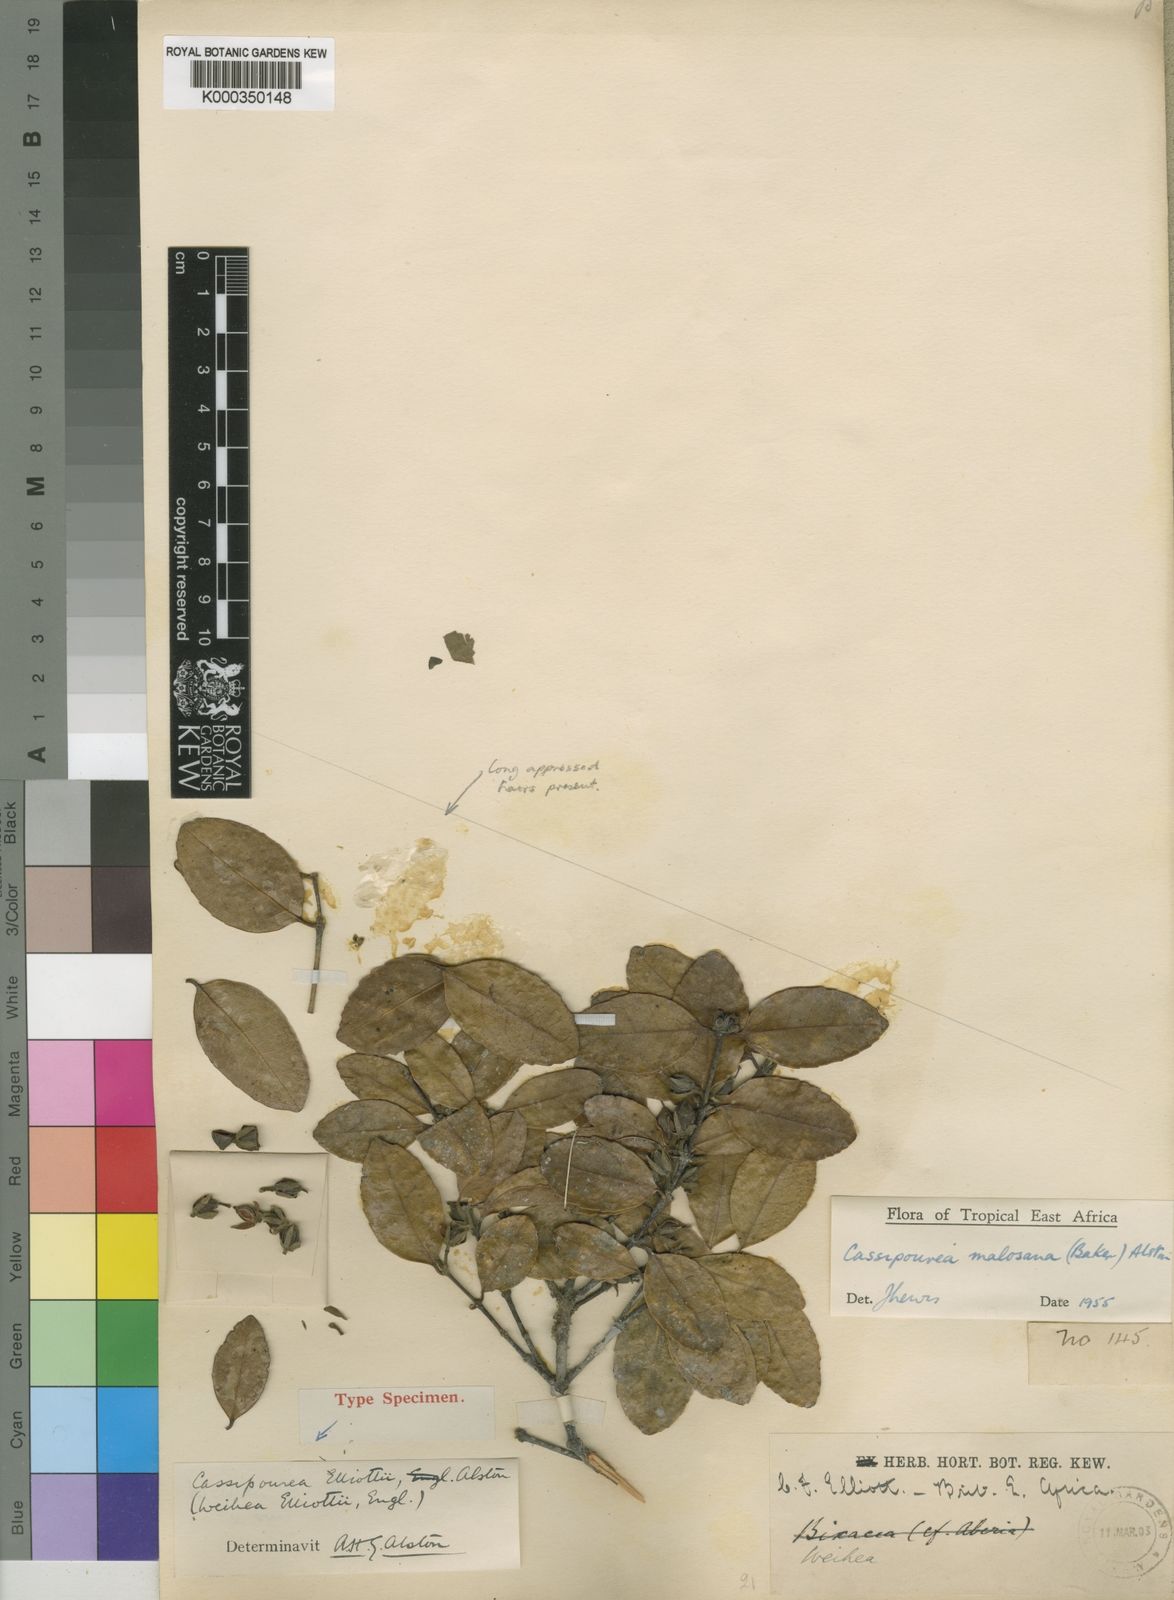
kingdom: Plantae
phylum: Tracheophyta
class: Magnoliopsida
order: Malpighiales
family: Rhizophoraceae
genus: Cassipourea
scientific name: Cassipourea malosana
